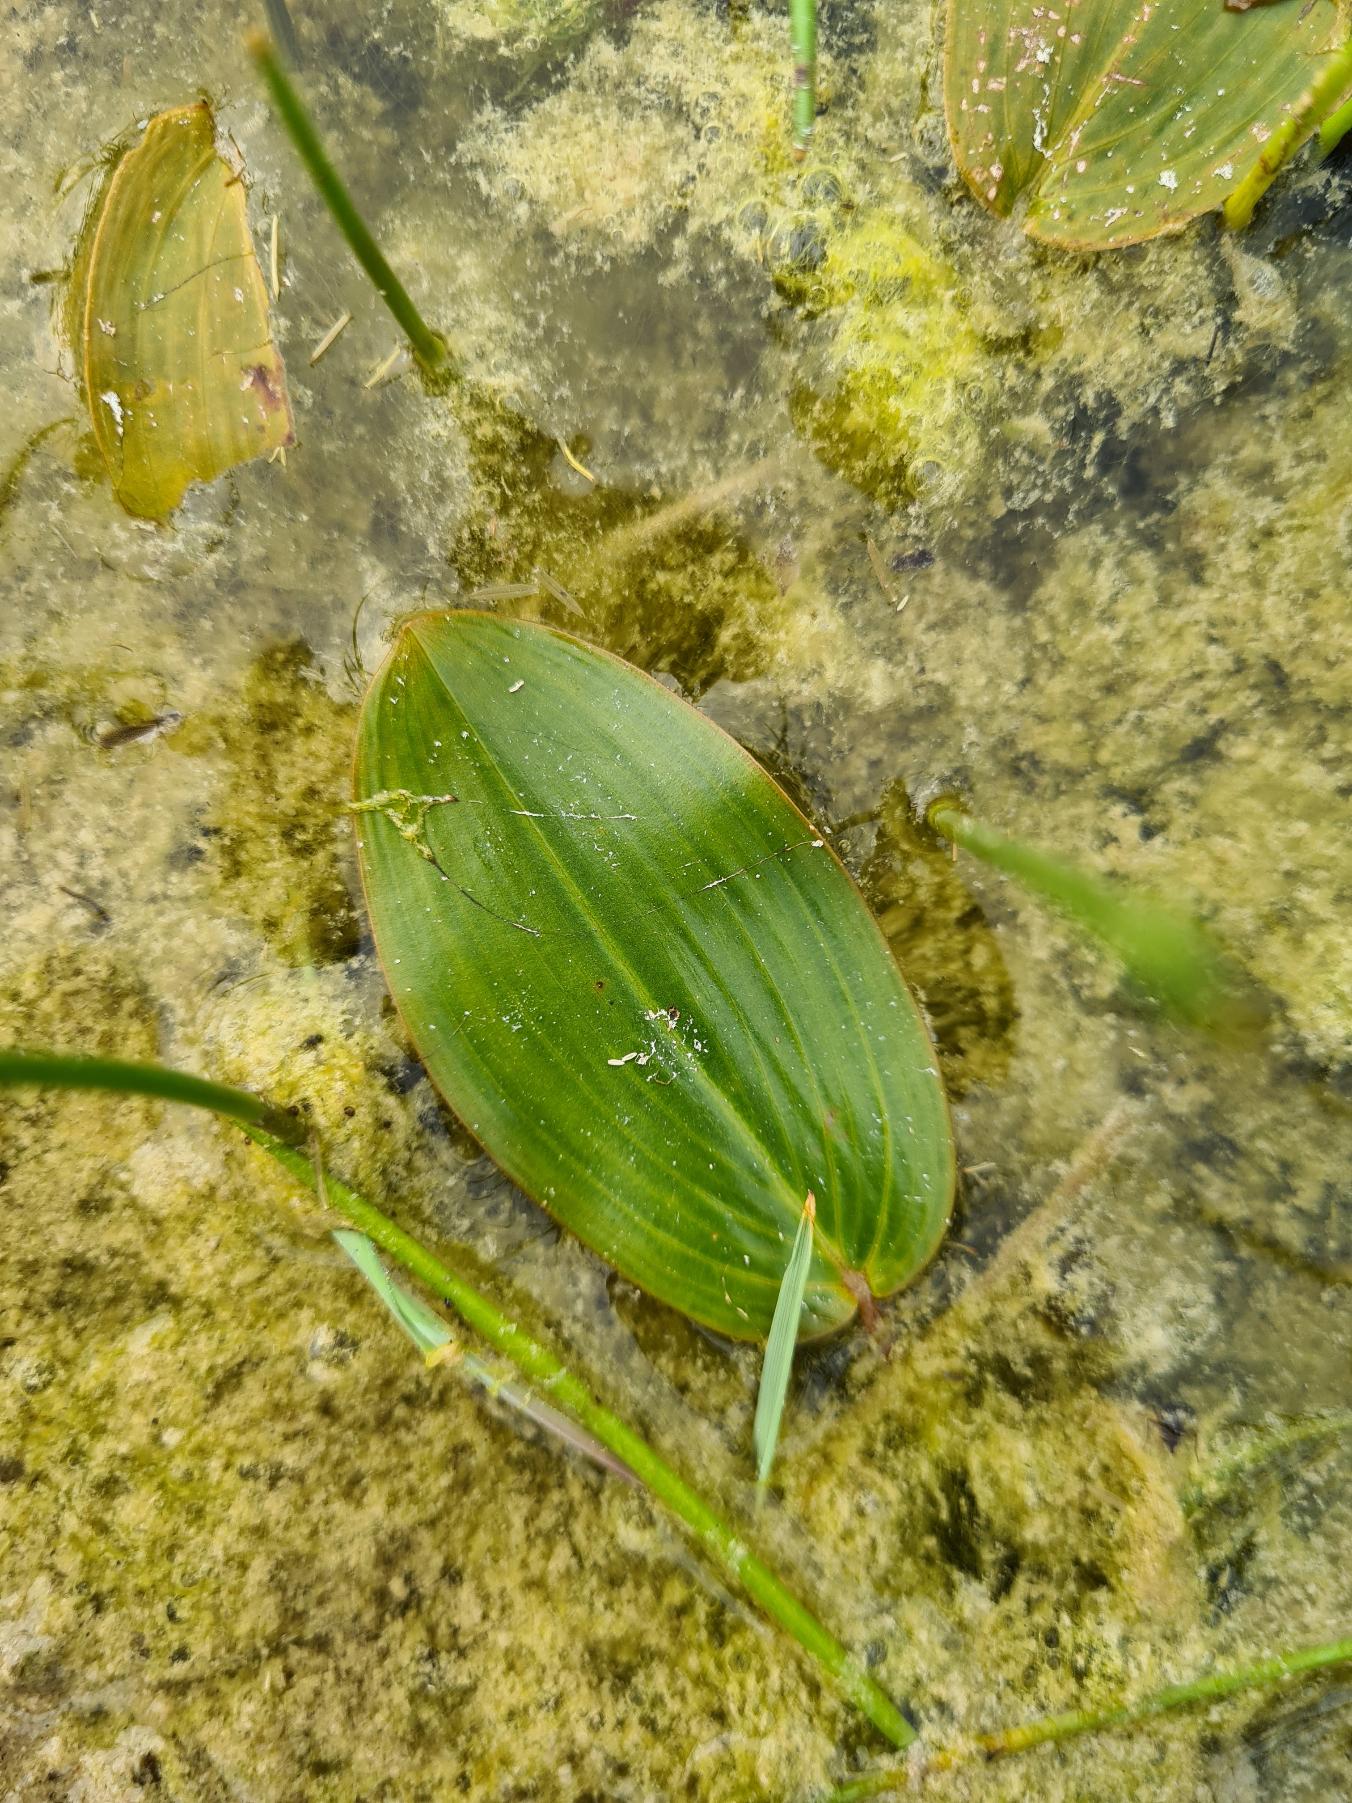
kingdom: Plantae
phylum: Tracheophyta
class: Liliopsida
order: Alismatales
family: Potamogetonaceae
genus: Potamogeton
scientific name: Potamogeton natans
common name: Svømmende vandaks
